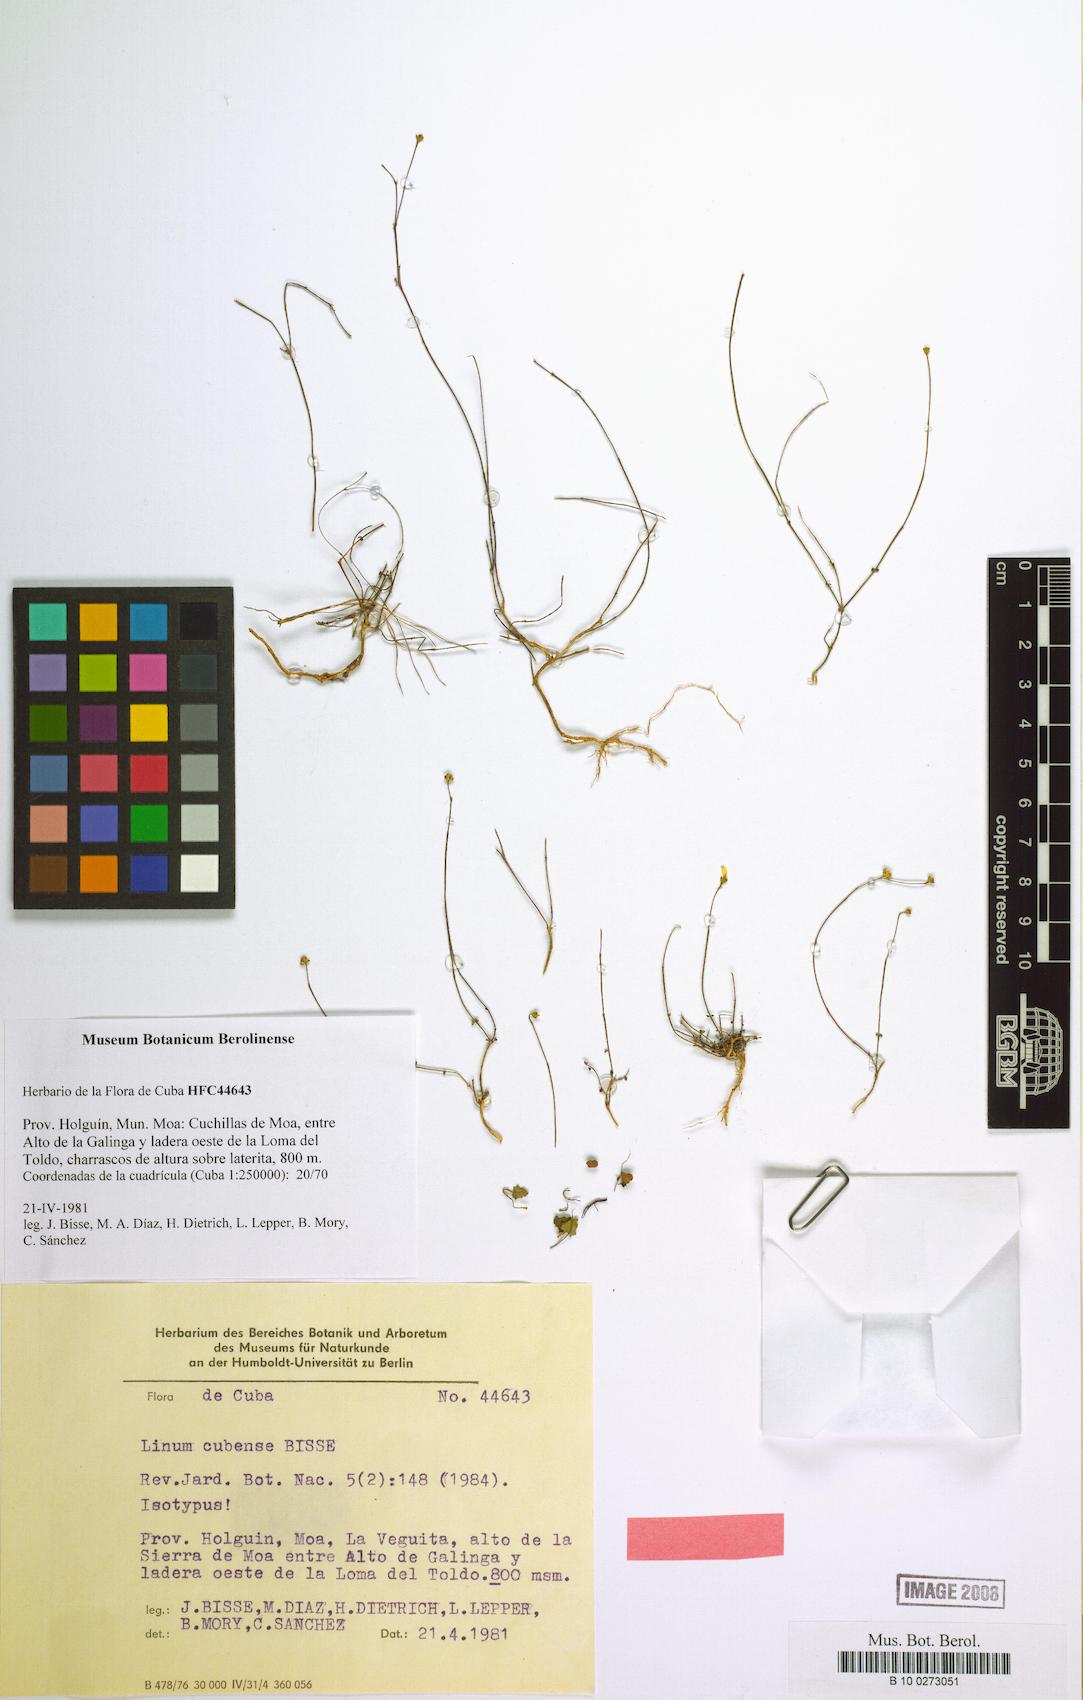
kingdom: Plantae
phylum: Tracheophyta
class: Magnoliopsida
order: Malpighiales
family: Linaceae
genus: Linum
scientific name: Linum cubense
